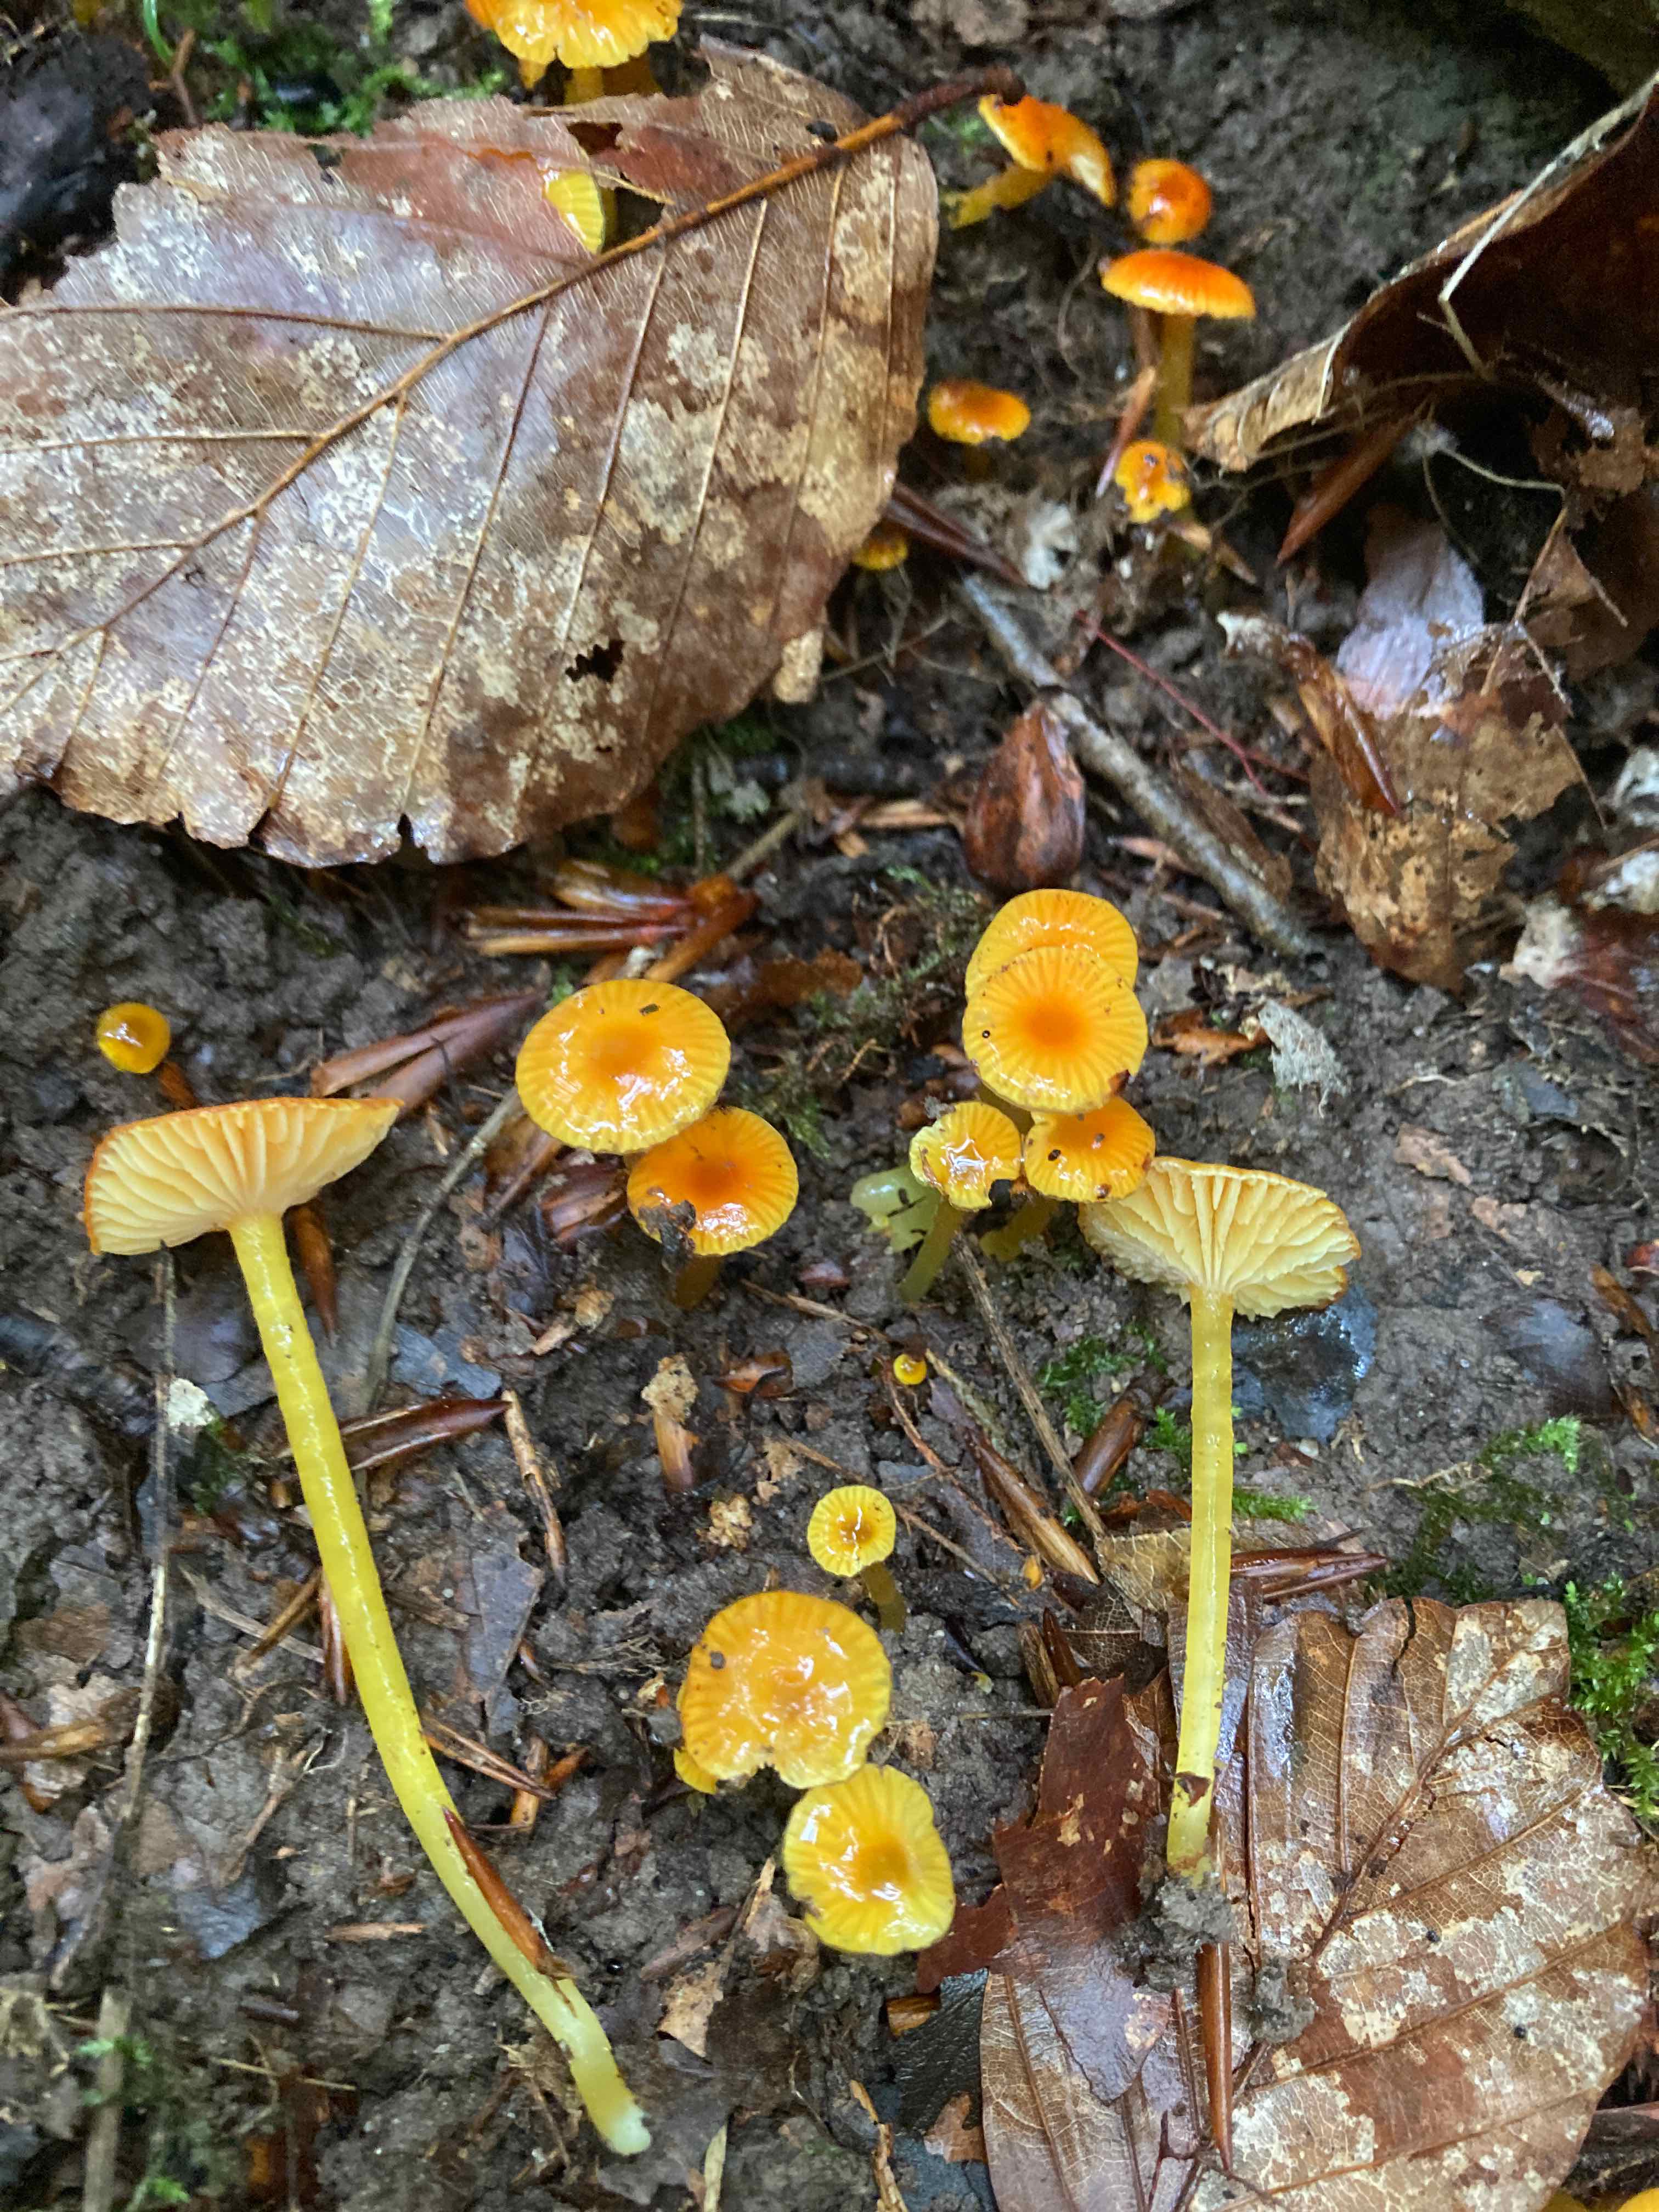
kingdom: Fungi
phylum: Basidiomycota
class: Agaricomycetes
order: Agaricales
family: Hygrophoraceae
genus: Hygrocybe
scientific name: Hygrocybe glutinipes
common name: slimstokket vokshat
